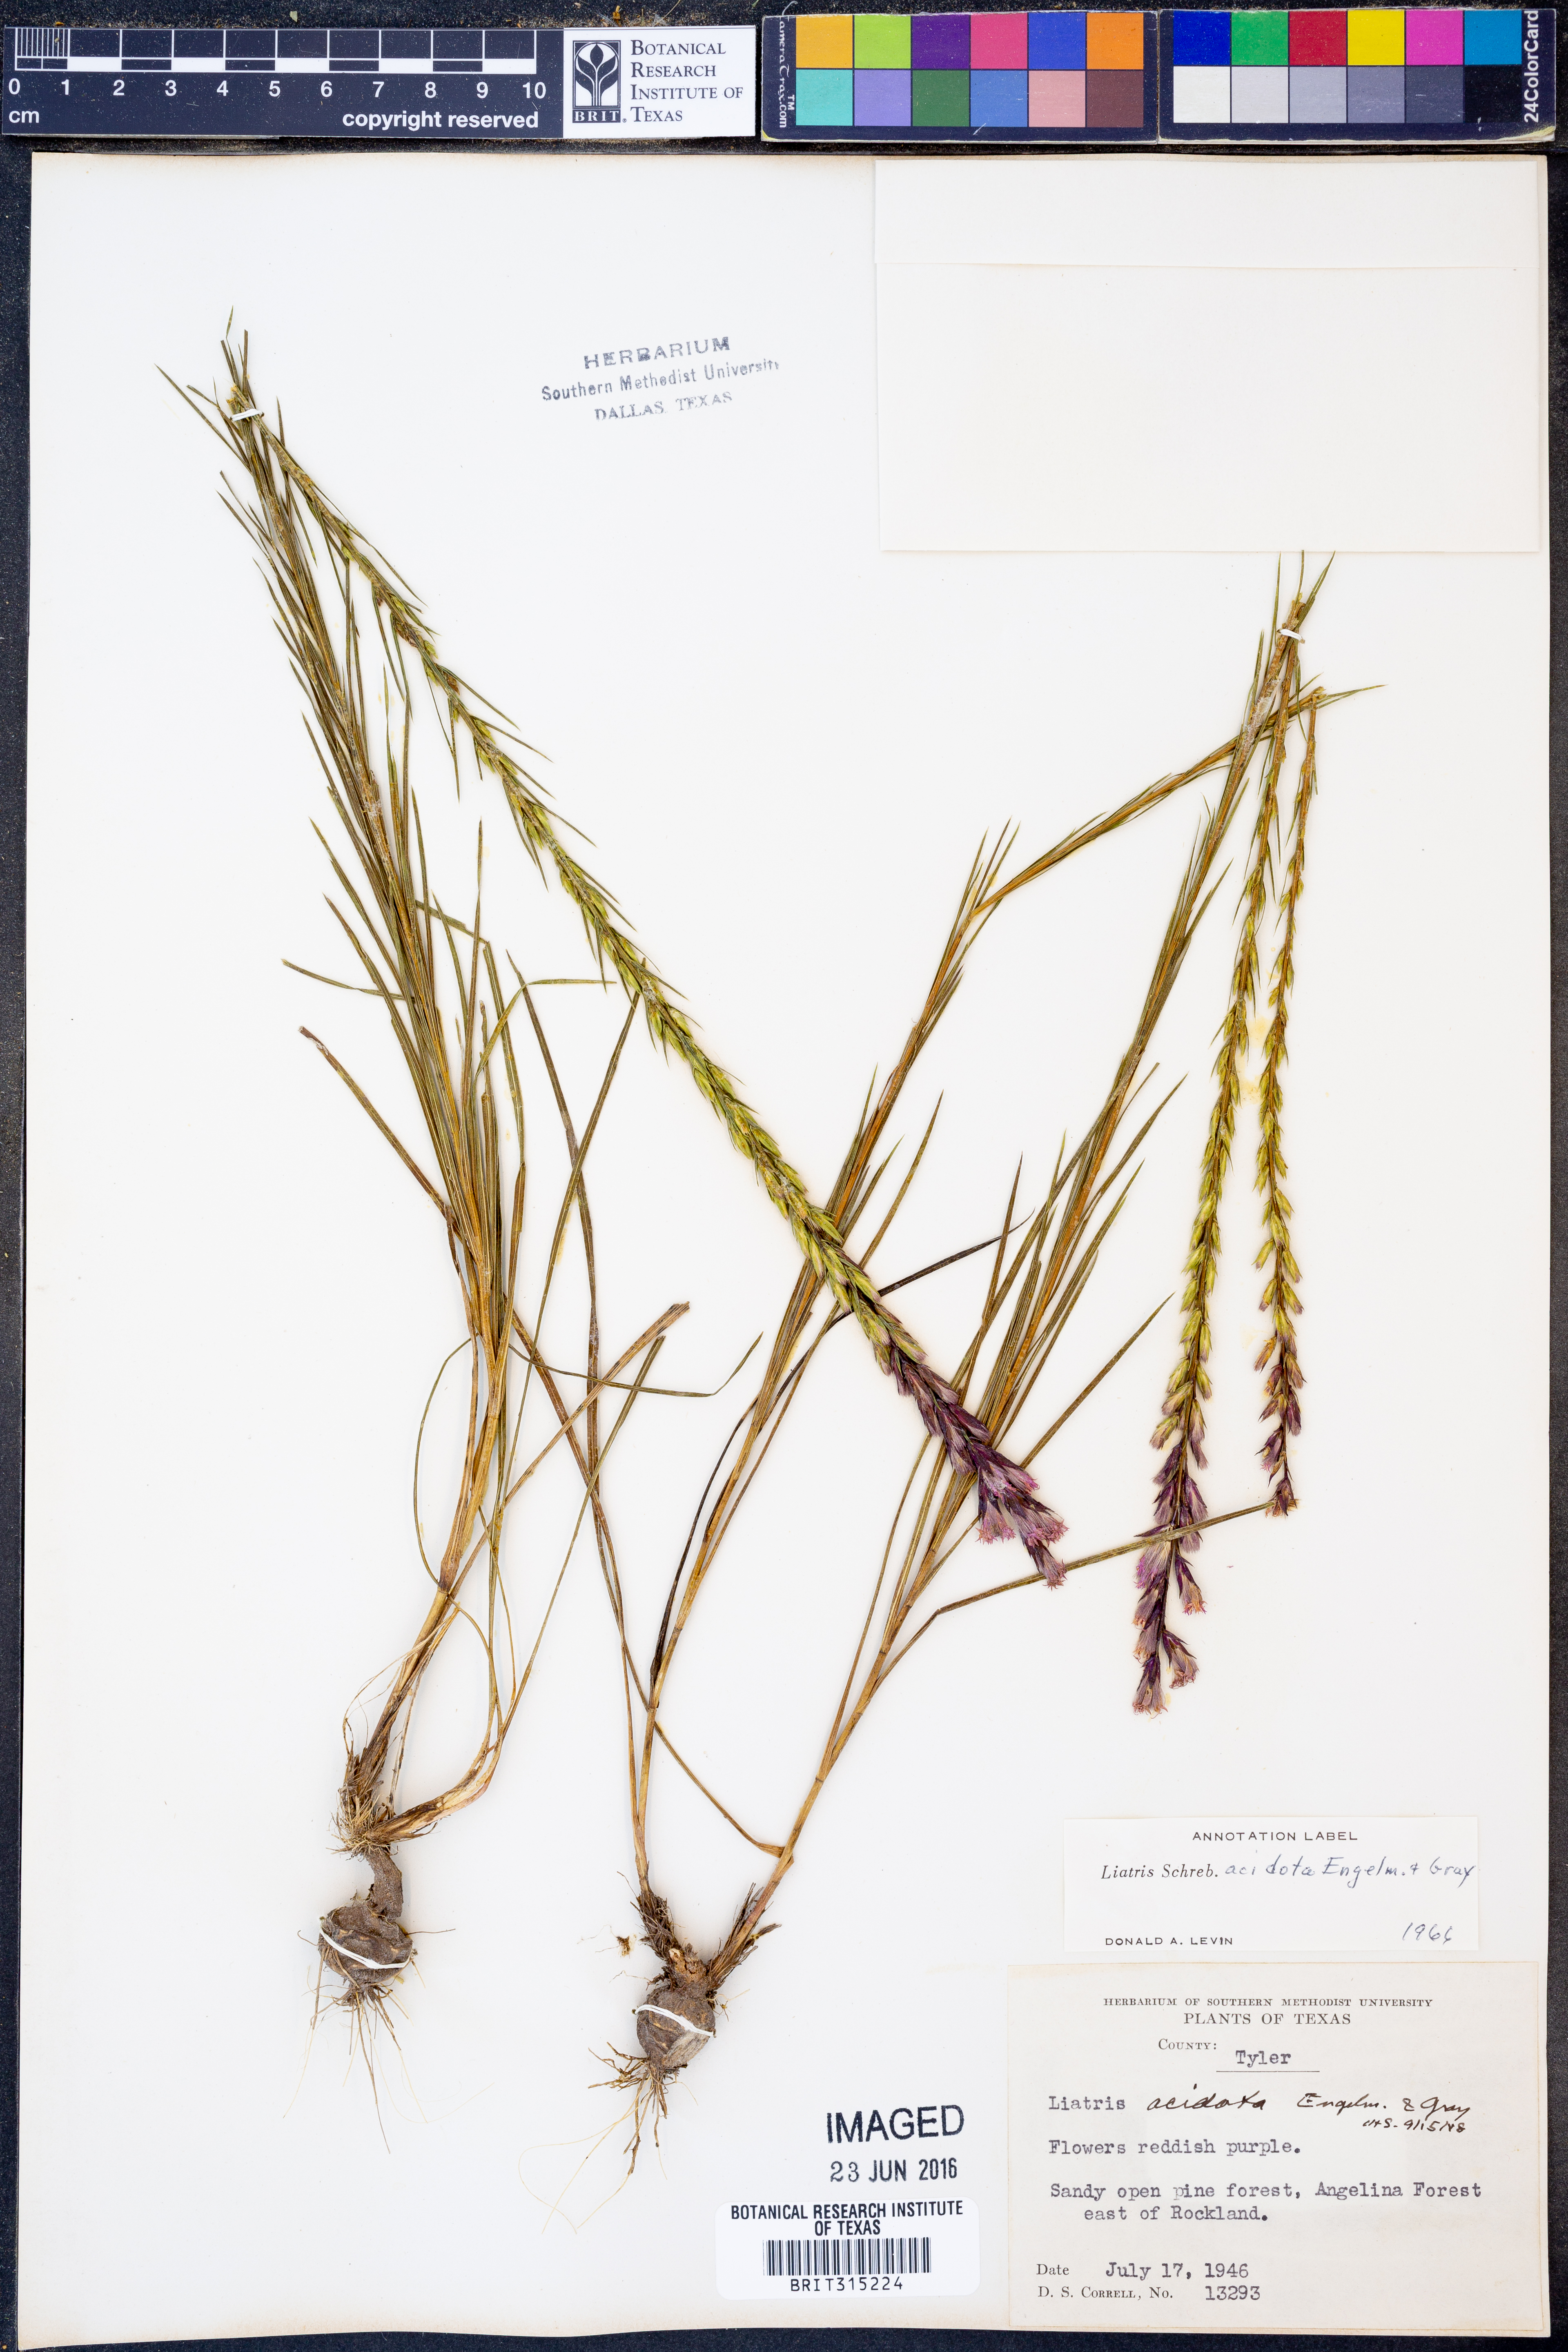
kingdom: Plantae
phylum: Tracheophyta
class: Magnoliopsida
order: Asterales
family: Asteraceae
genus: Liatris
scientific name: Liatris acidota
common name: Gulf coast gayfeather
